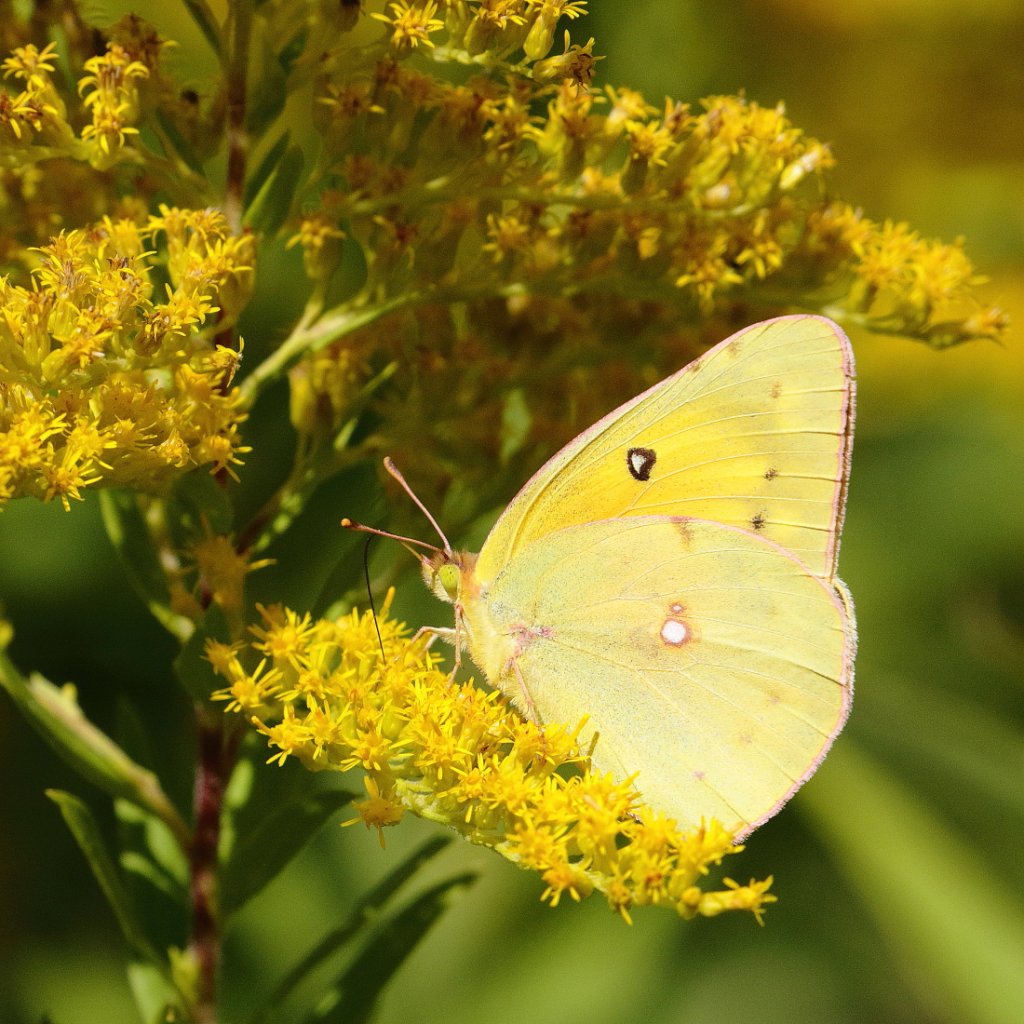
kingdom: Animalia
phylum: Arthropoda
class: Insecta
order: Lepidoptera
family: Pieridae
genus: Colias
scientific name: Colias eurytheme
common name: Orange Sulphur
